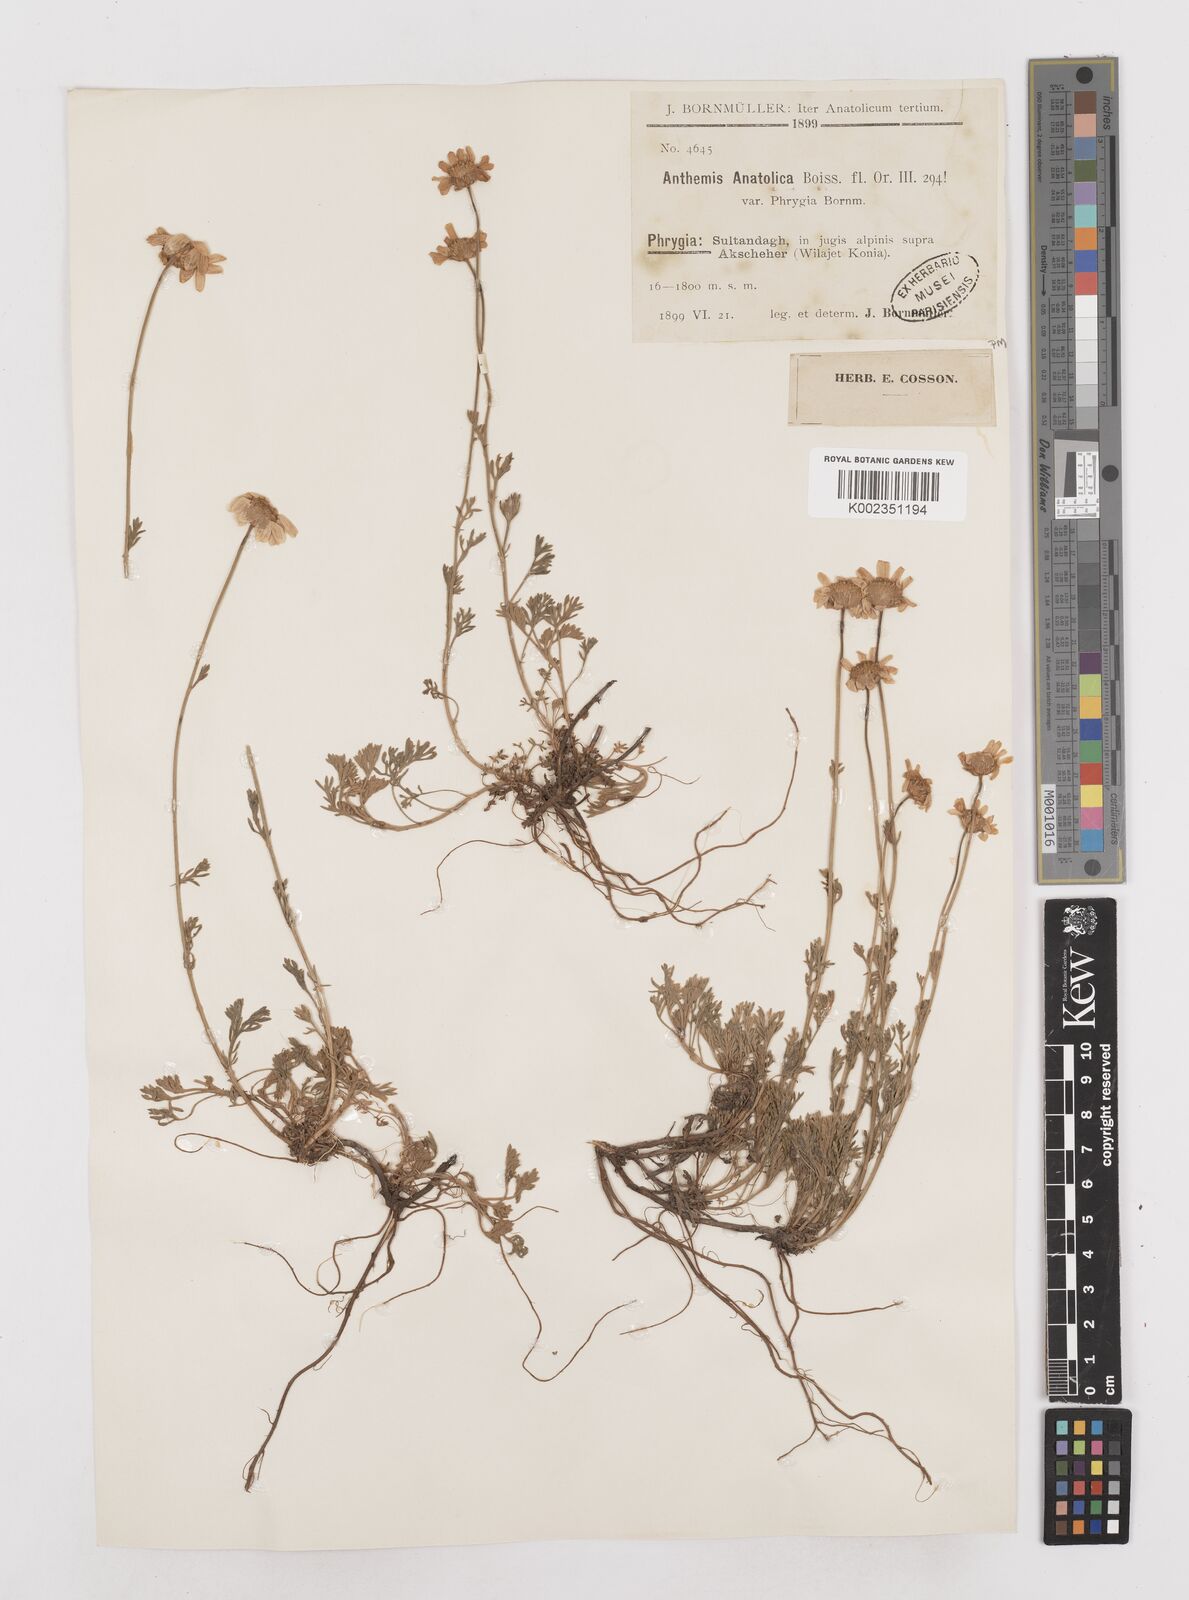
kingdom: Plantae
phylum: Tracheophyta
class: Magnoliopsida
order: Asterales
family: Asteraceae
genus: Anthemis
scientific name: Anthemis cretica
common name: Mountain dog-daisy
